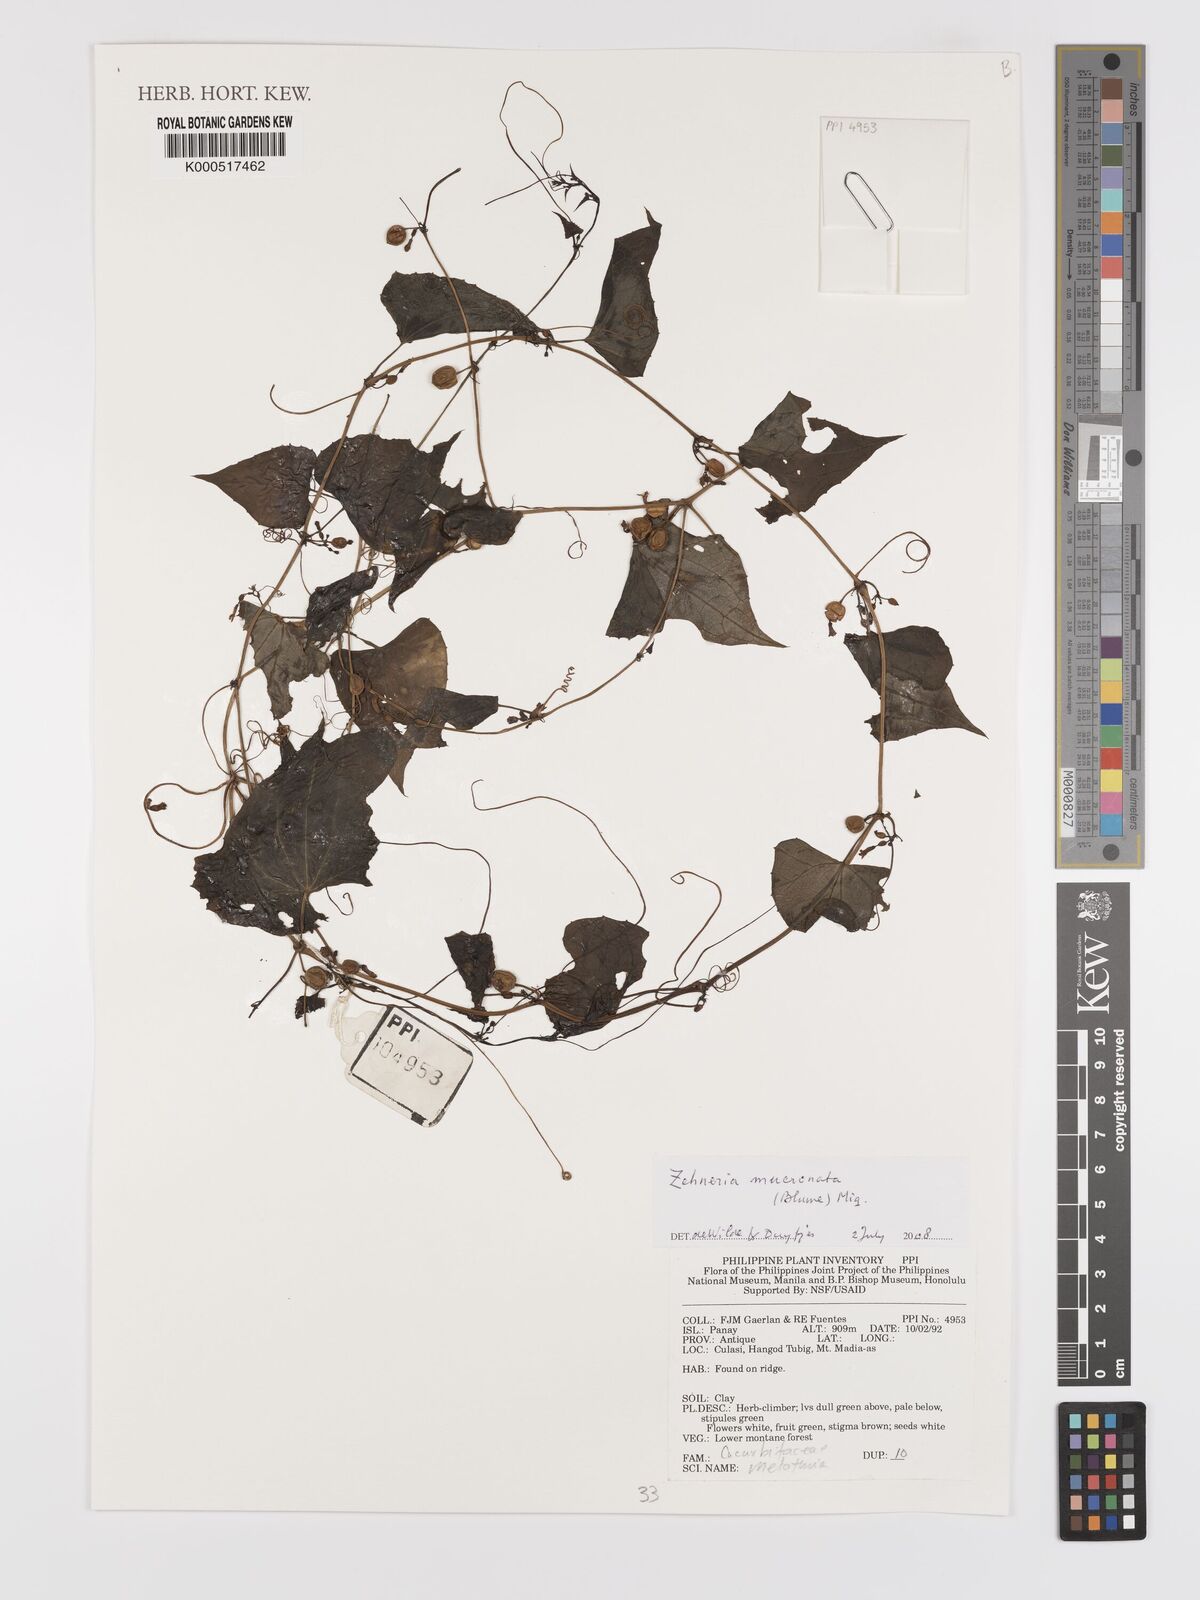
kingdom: Plantae
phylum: Tracheophyta
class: Magnoliopsida
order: Cucurbitales
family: Cucurbitaceae
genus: Zehneria
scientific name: Zehneria mucronata
